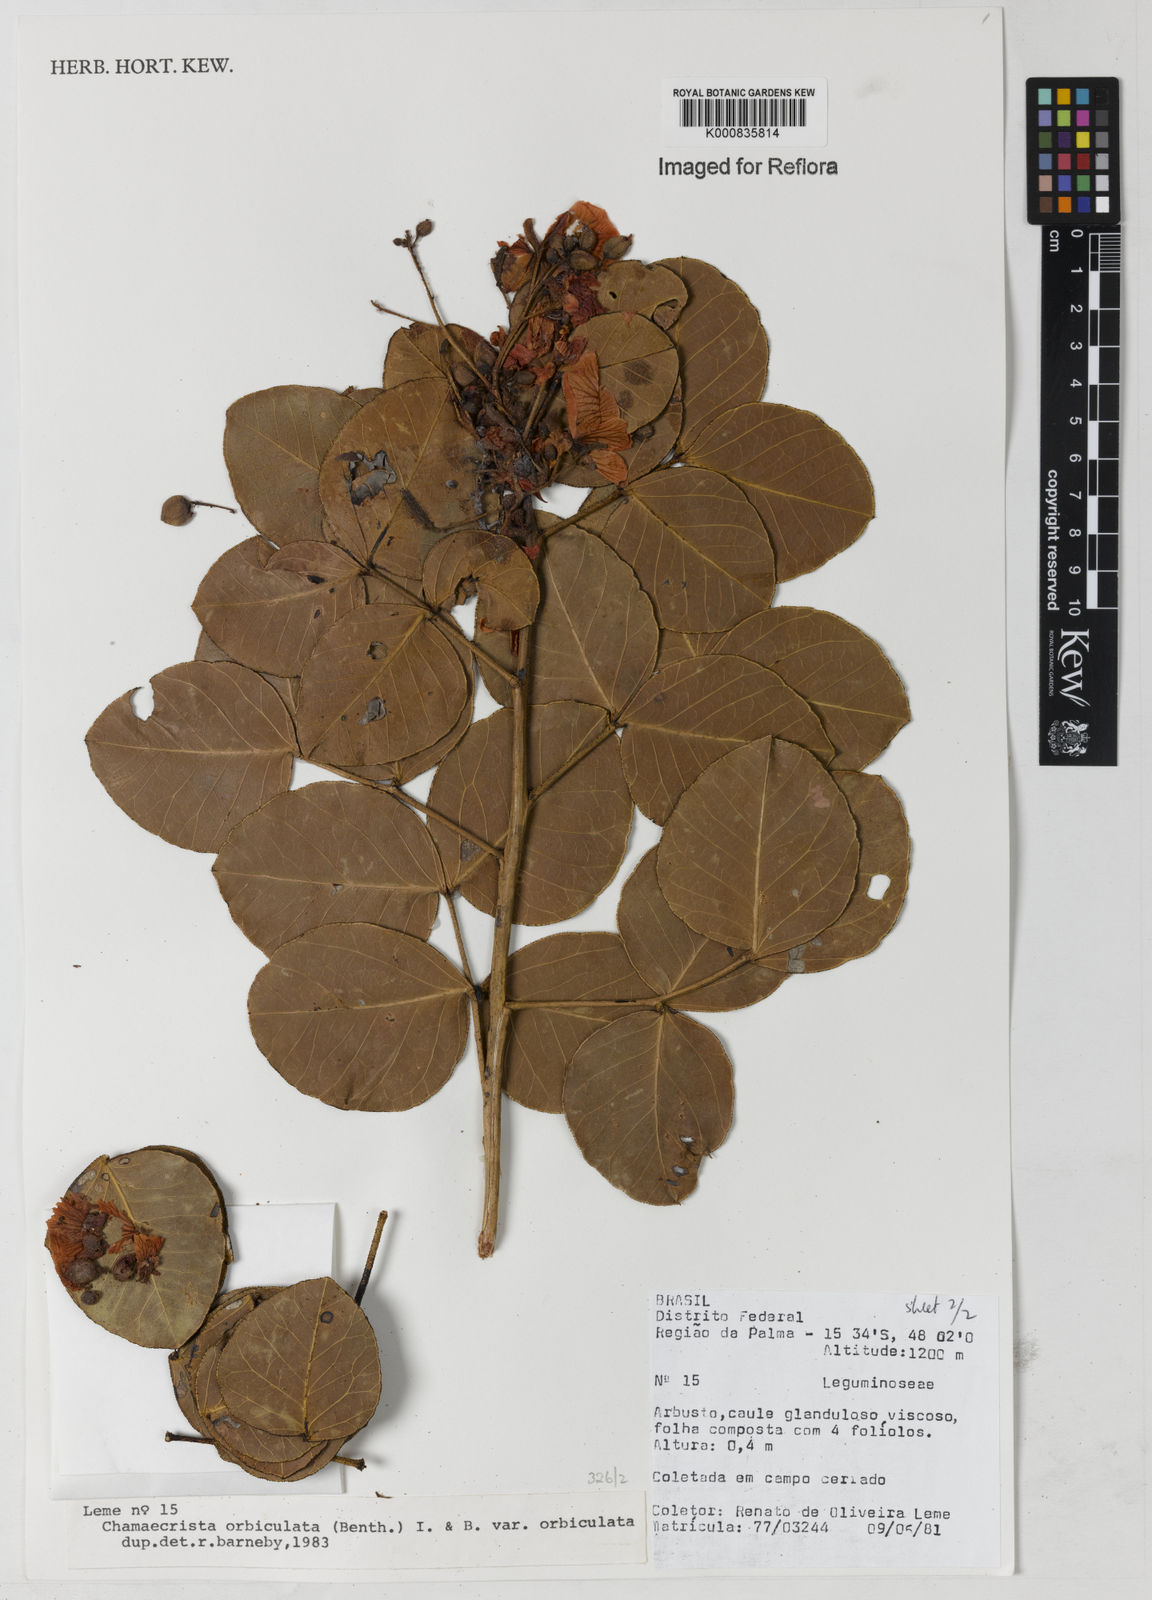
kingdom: Plantae
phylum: Tracheophyta
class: Magnoliopsida
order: Fabales
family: Fabaceae
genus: Chamaecrista
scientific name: Chamaecrista orbiculata
